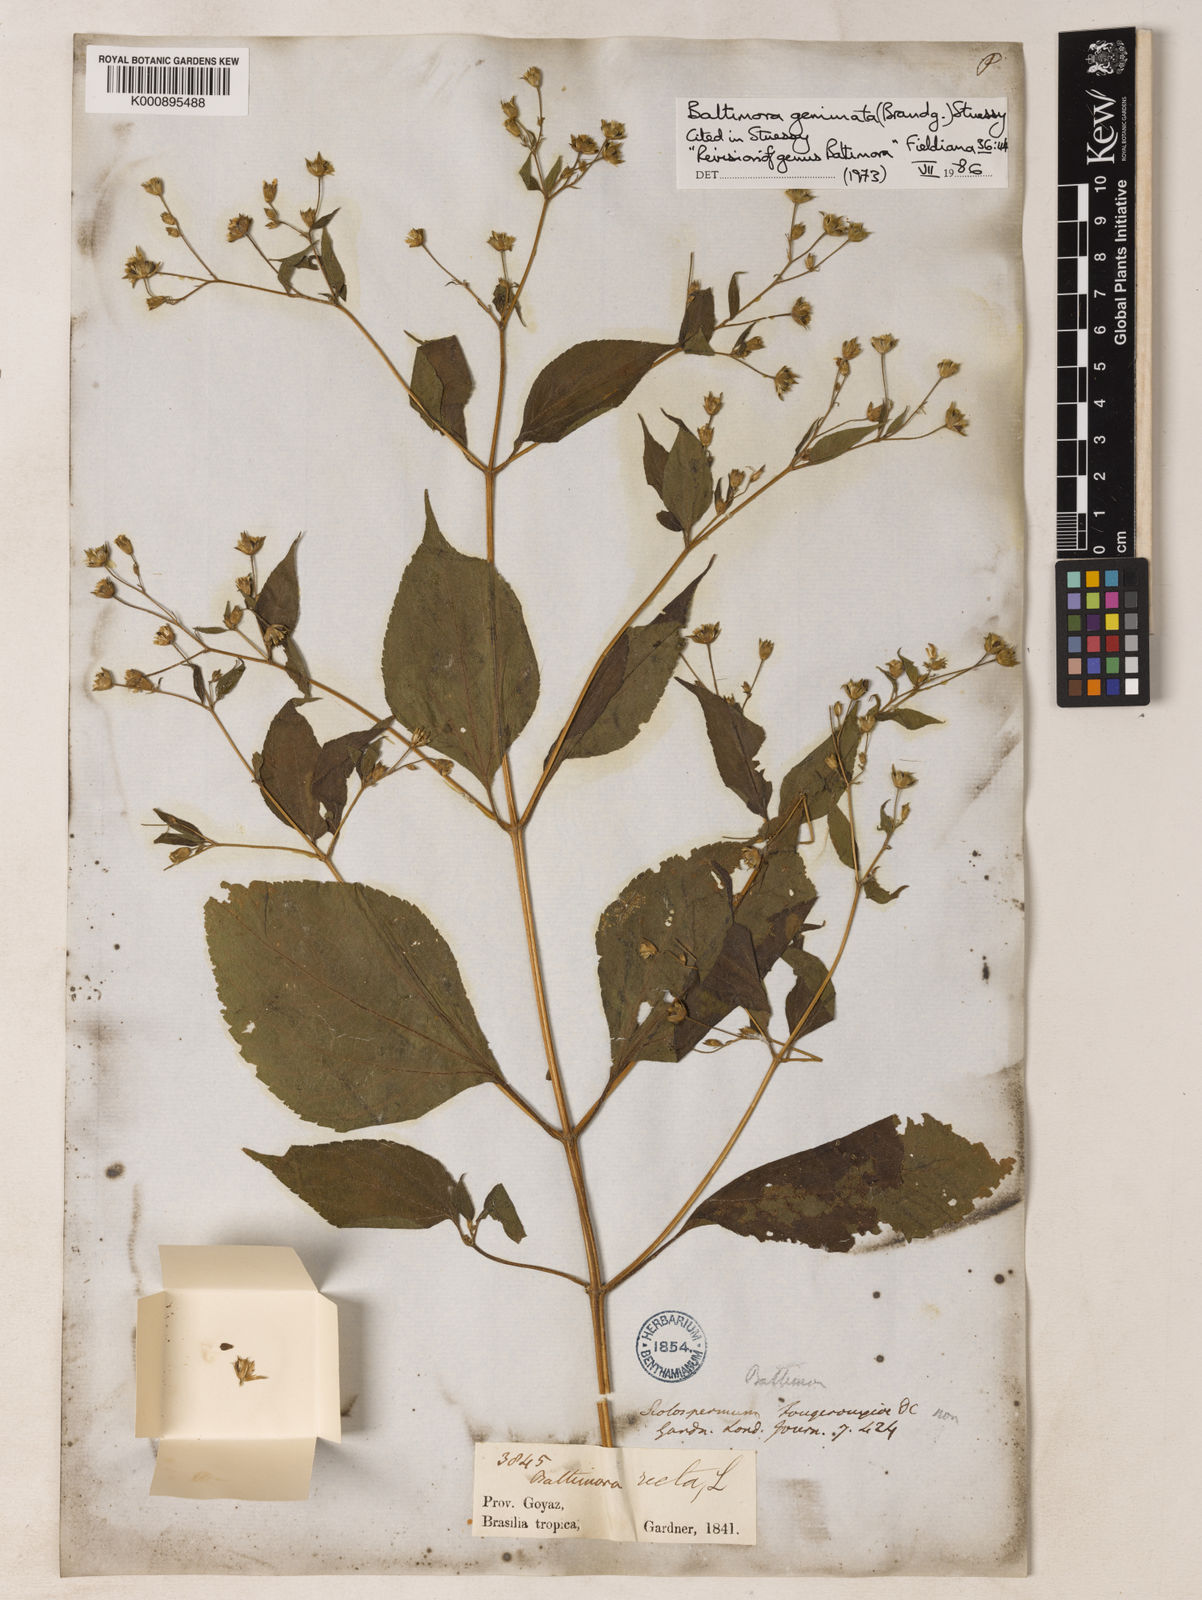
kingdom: Plantae
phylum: Tracheophyta
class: Magnoliopsida
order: Asterales
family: Asteraceae
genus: Baltimora
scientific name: Baltimora geminata
